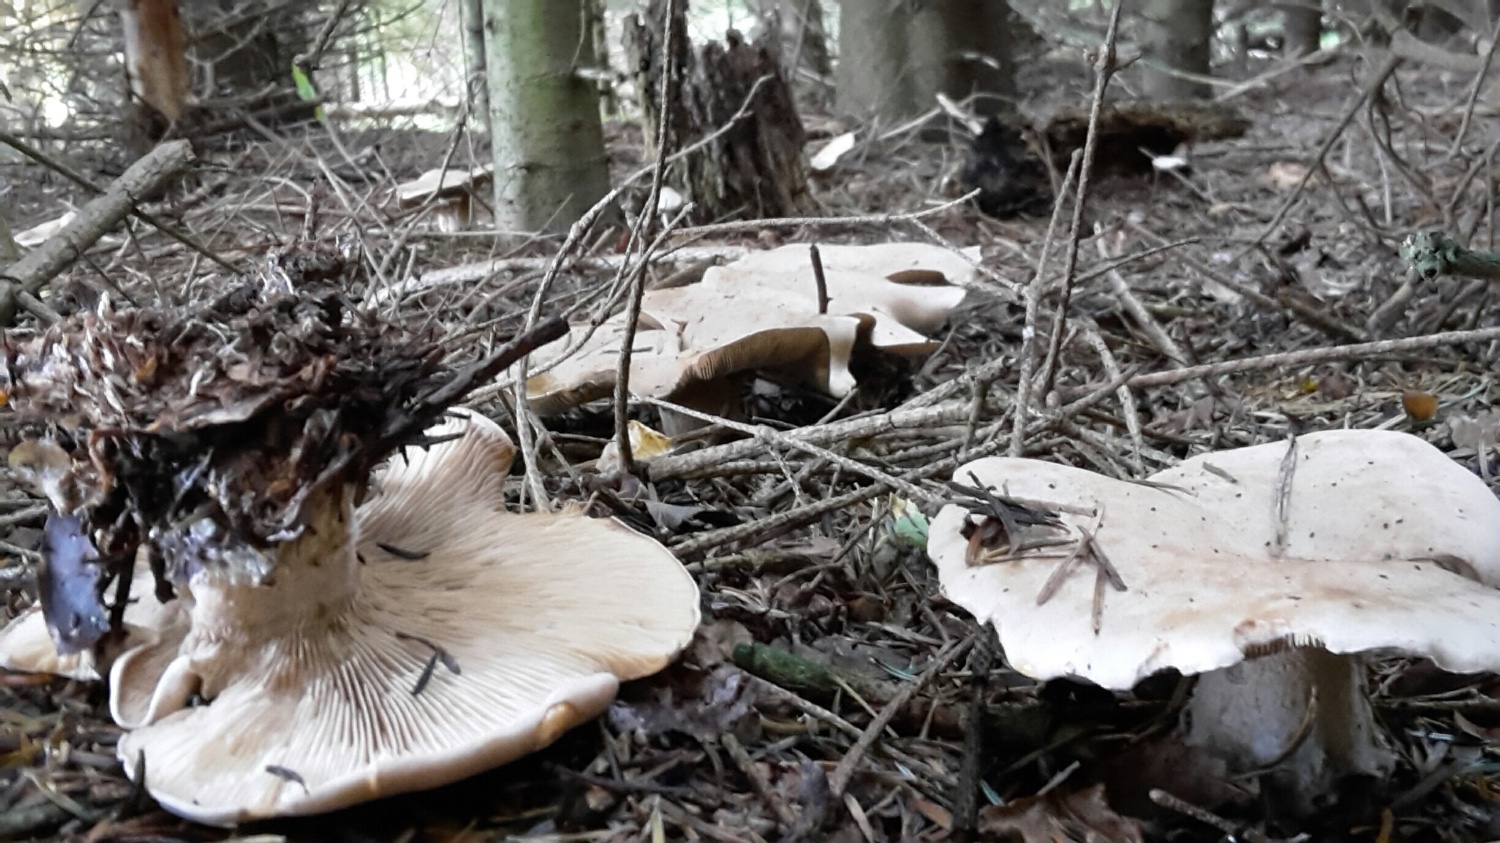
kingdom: Fungi
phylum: Basidiomycota
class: Agaricomycetes
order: Agaricales
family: Pseudoclitocybaceae
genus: Clitopaxillus
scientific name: Clitopaxillus fibulatus
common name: bestøvlet tragthat
